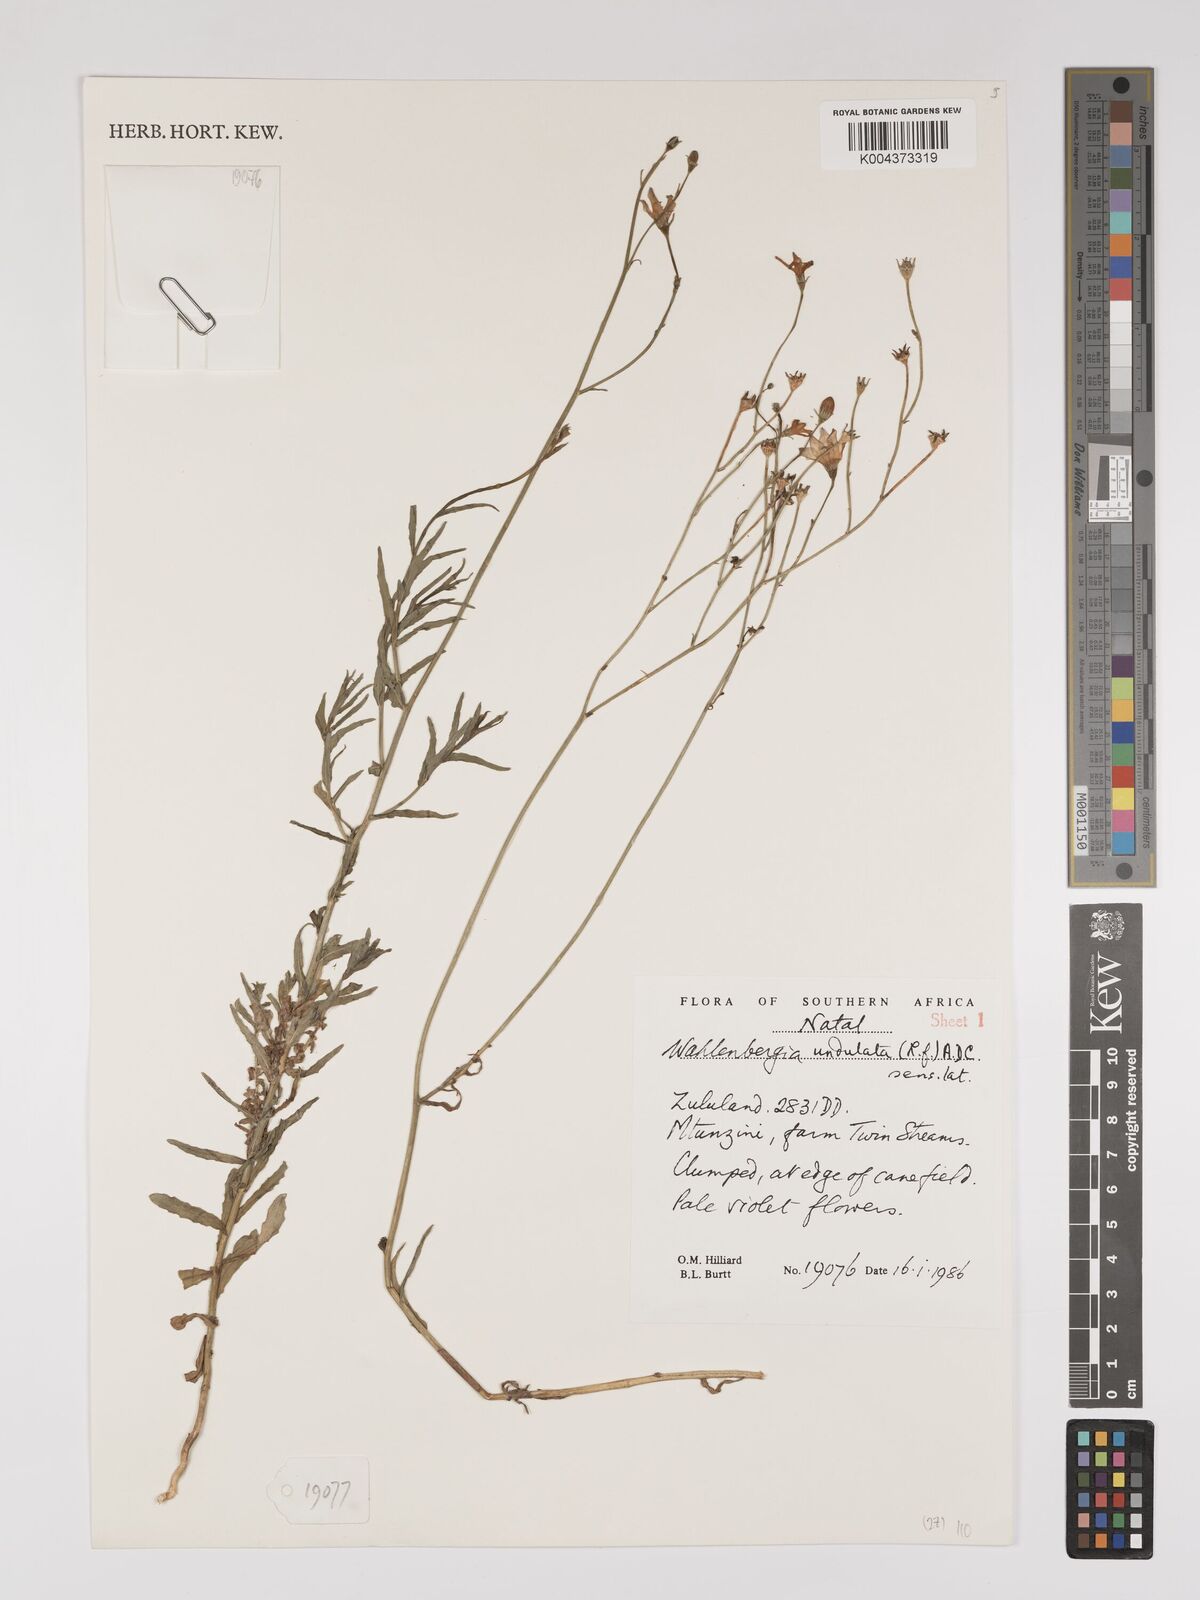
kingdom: Plantae
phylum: Tracheophyta
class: Magnoliopsida
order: Asterales
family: Campanulaceae
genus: Wahlenbergia
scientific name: Wahlenbergia undulata
